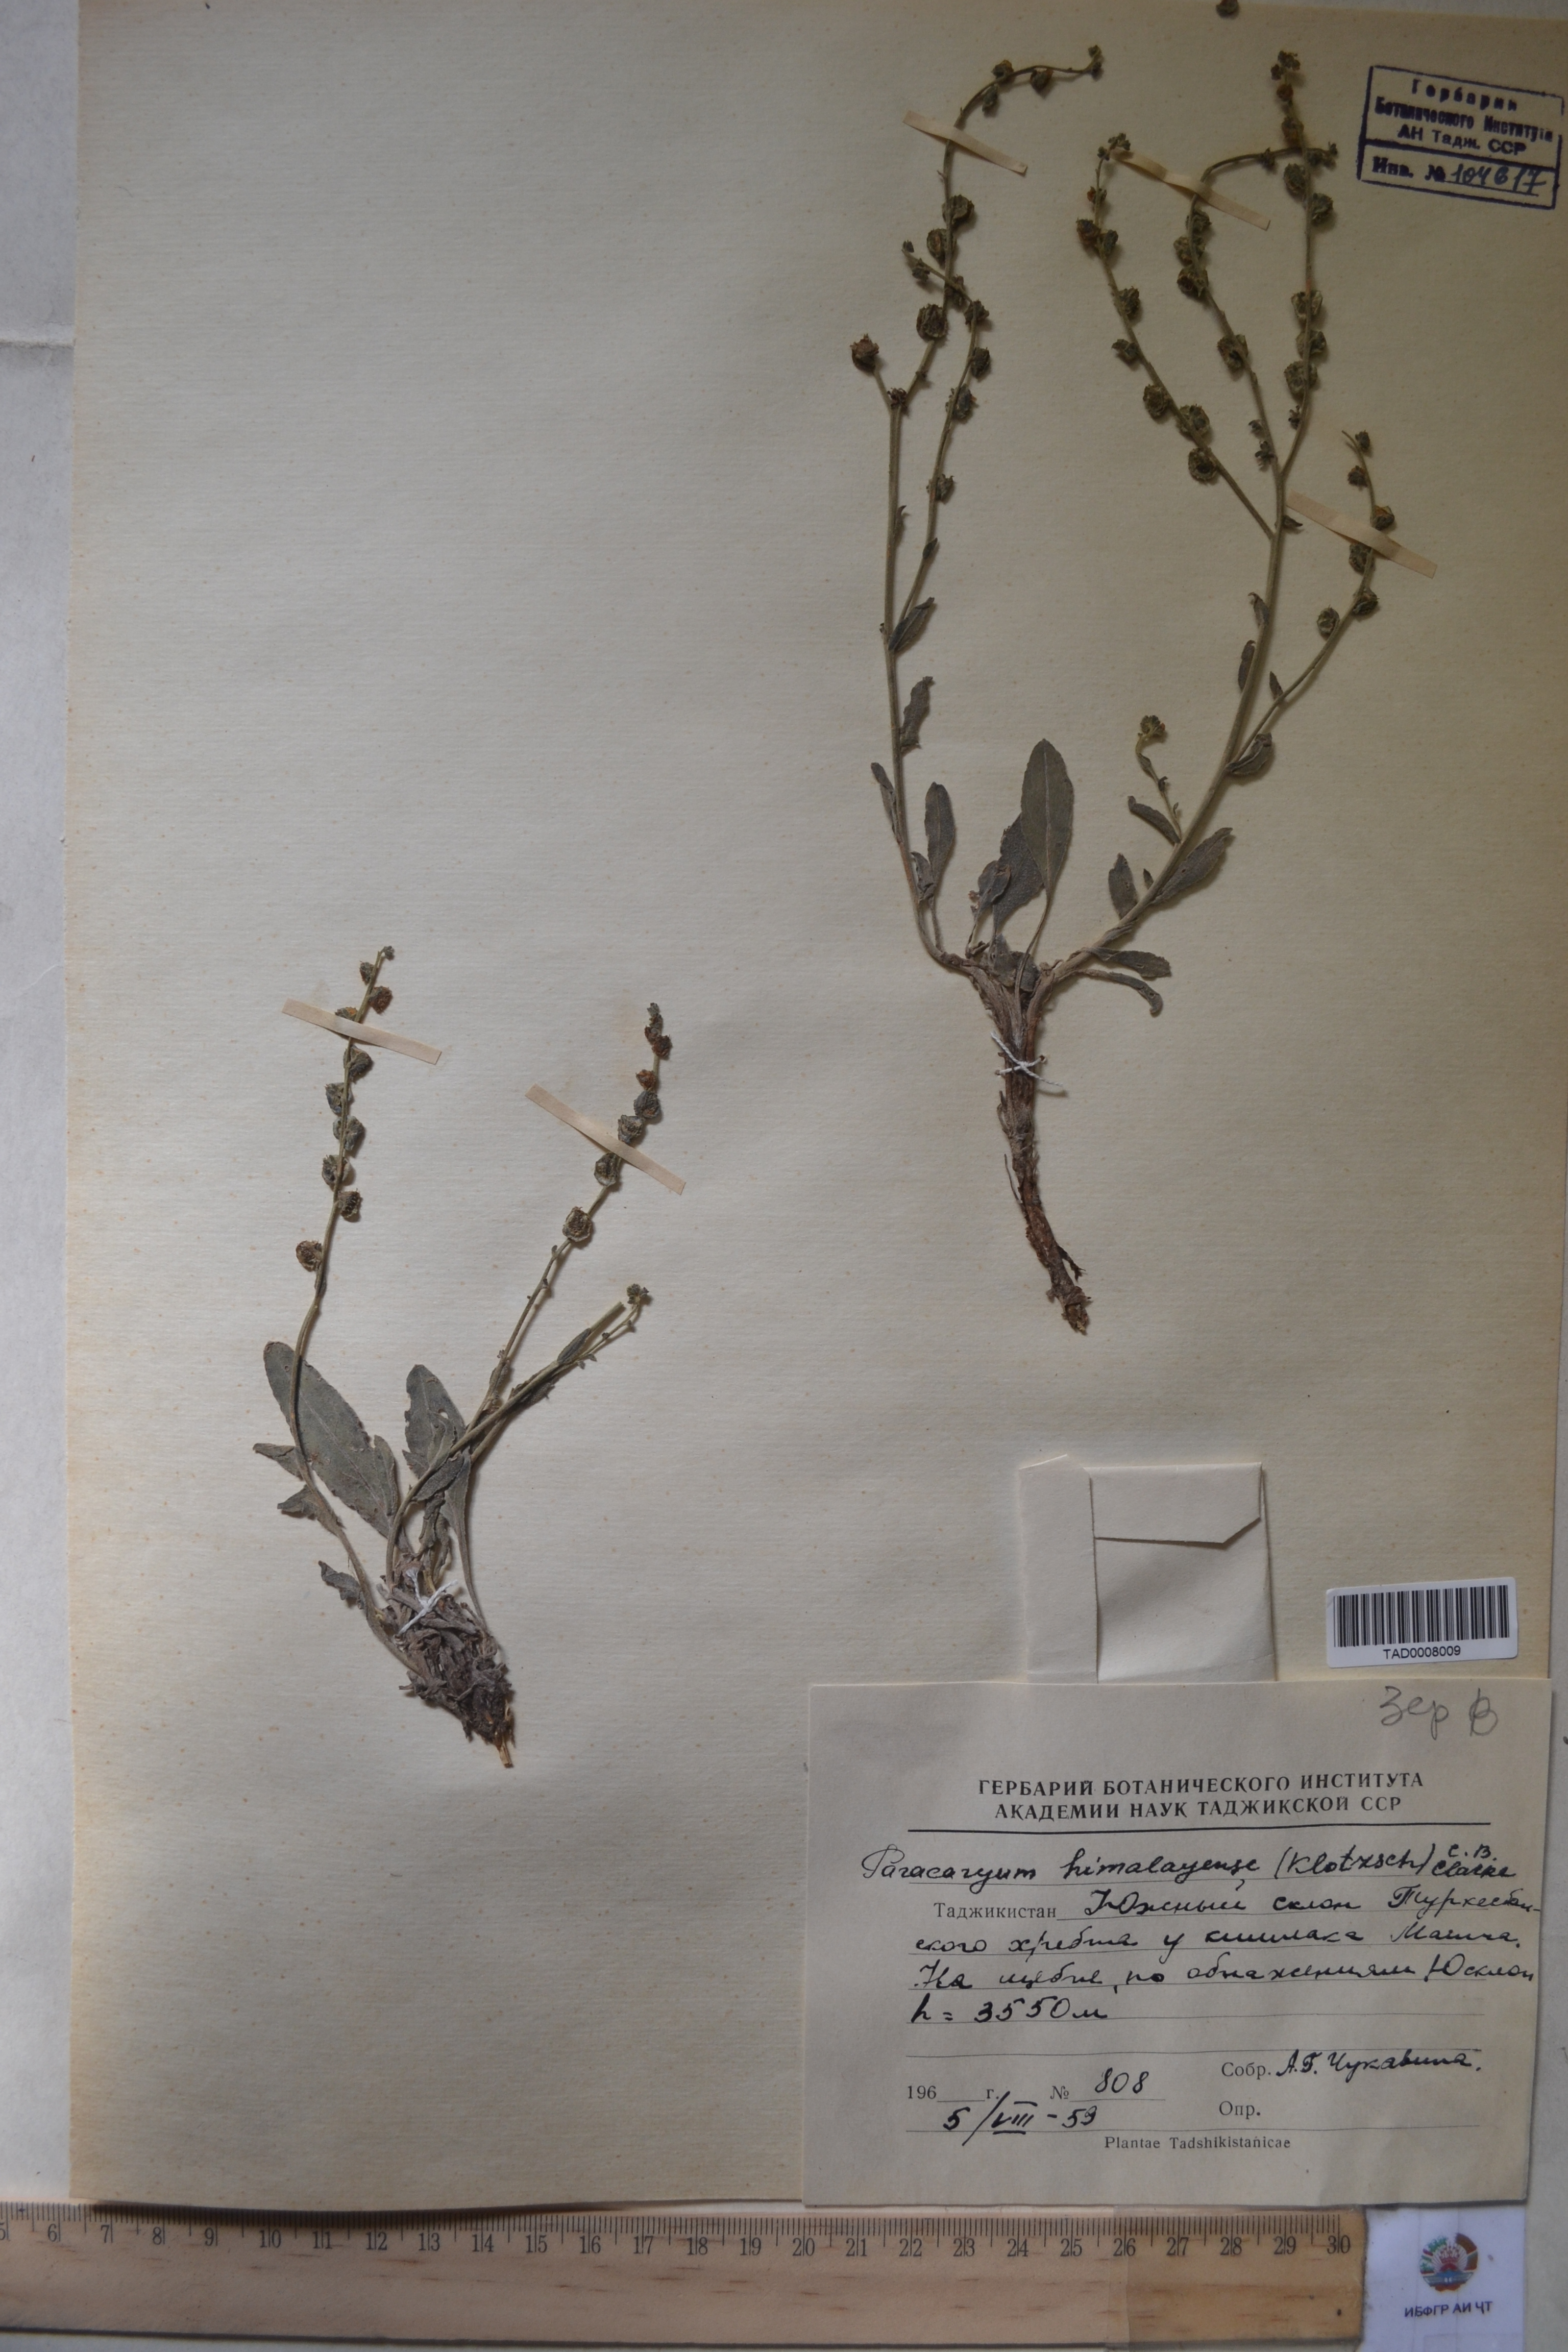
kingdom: Plantae
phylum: Tracheophyta
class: Magnoliopsida
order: Boraginales
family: Boraginaceae
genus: Paracaryum
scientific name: Paracaryum himalayense
